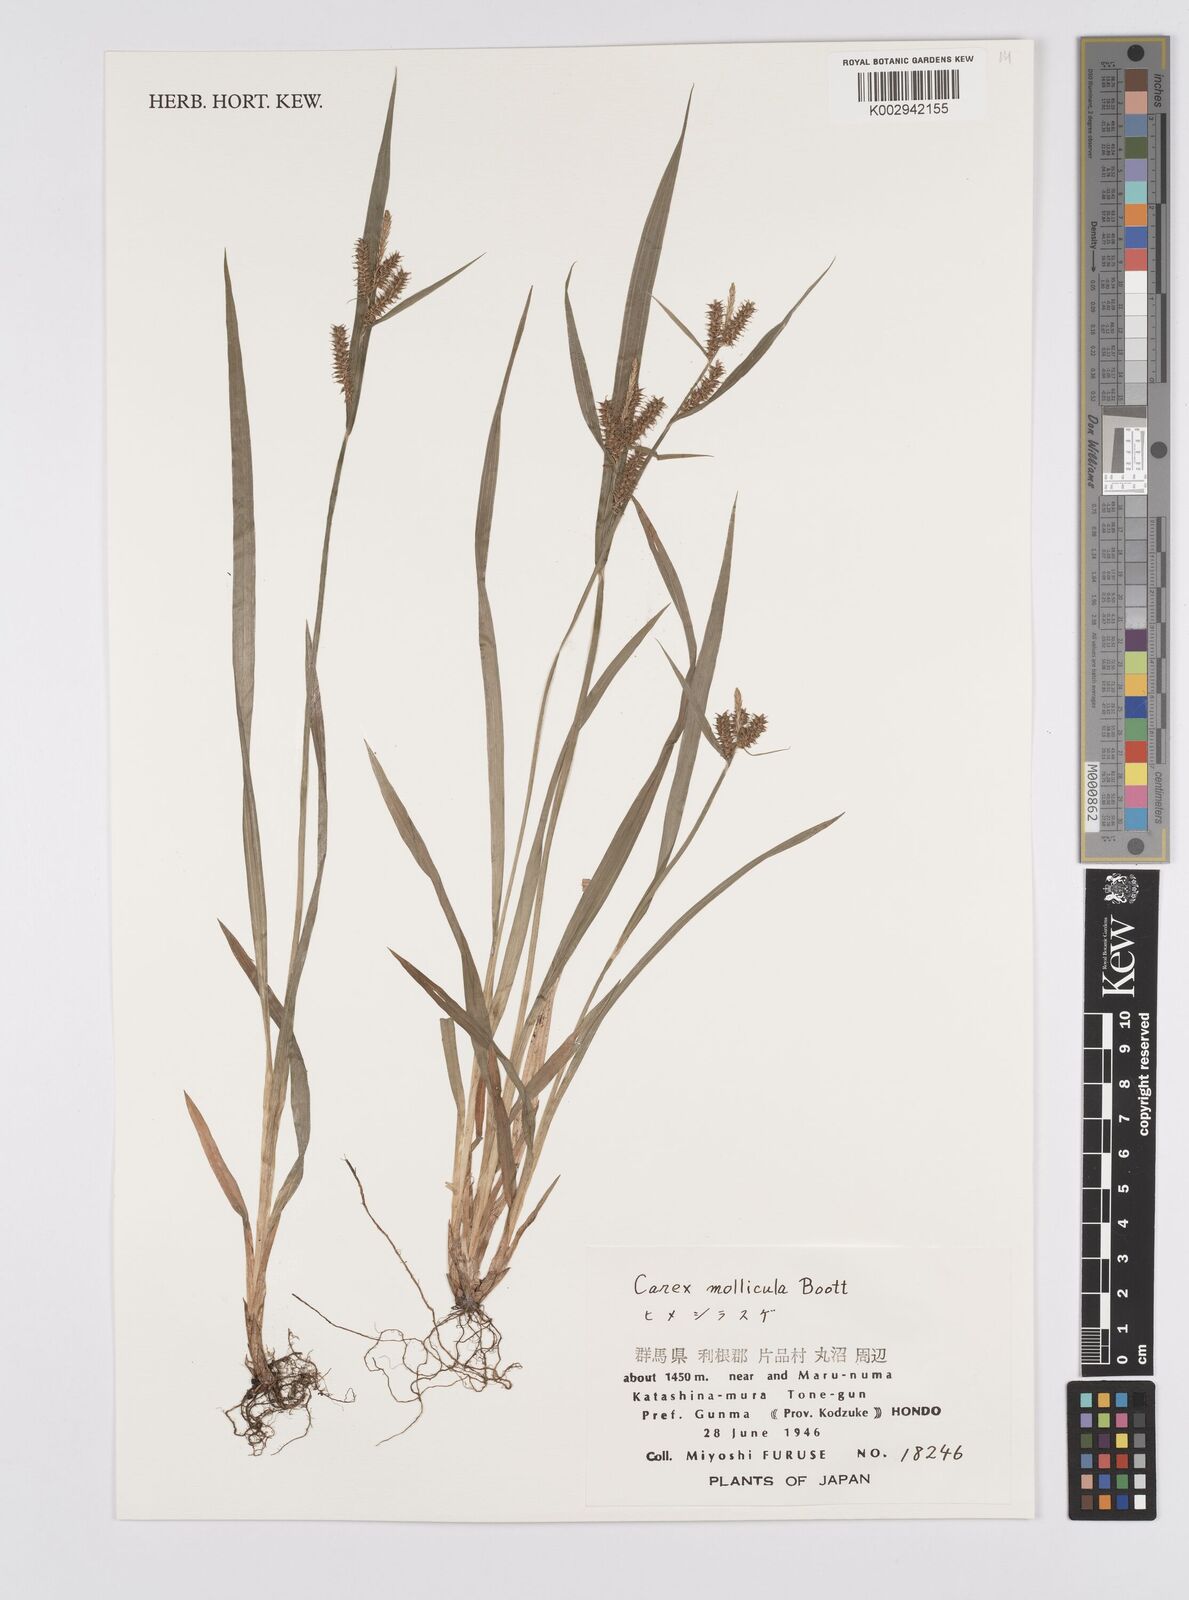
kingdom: Plantae
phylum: Tracheophyta
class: Liliopsida
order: Poales
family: Cyperaceae
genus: Carex
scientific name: Carex mollicula
